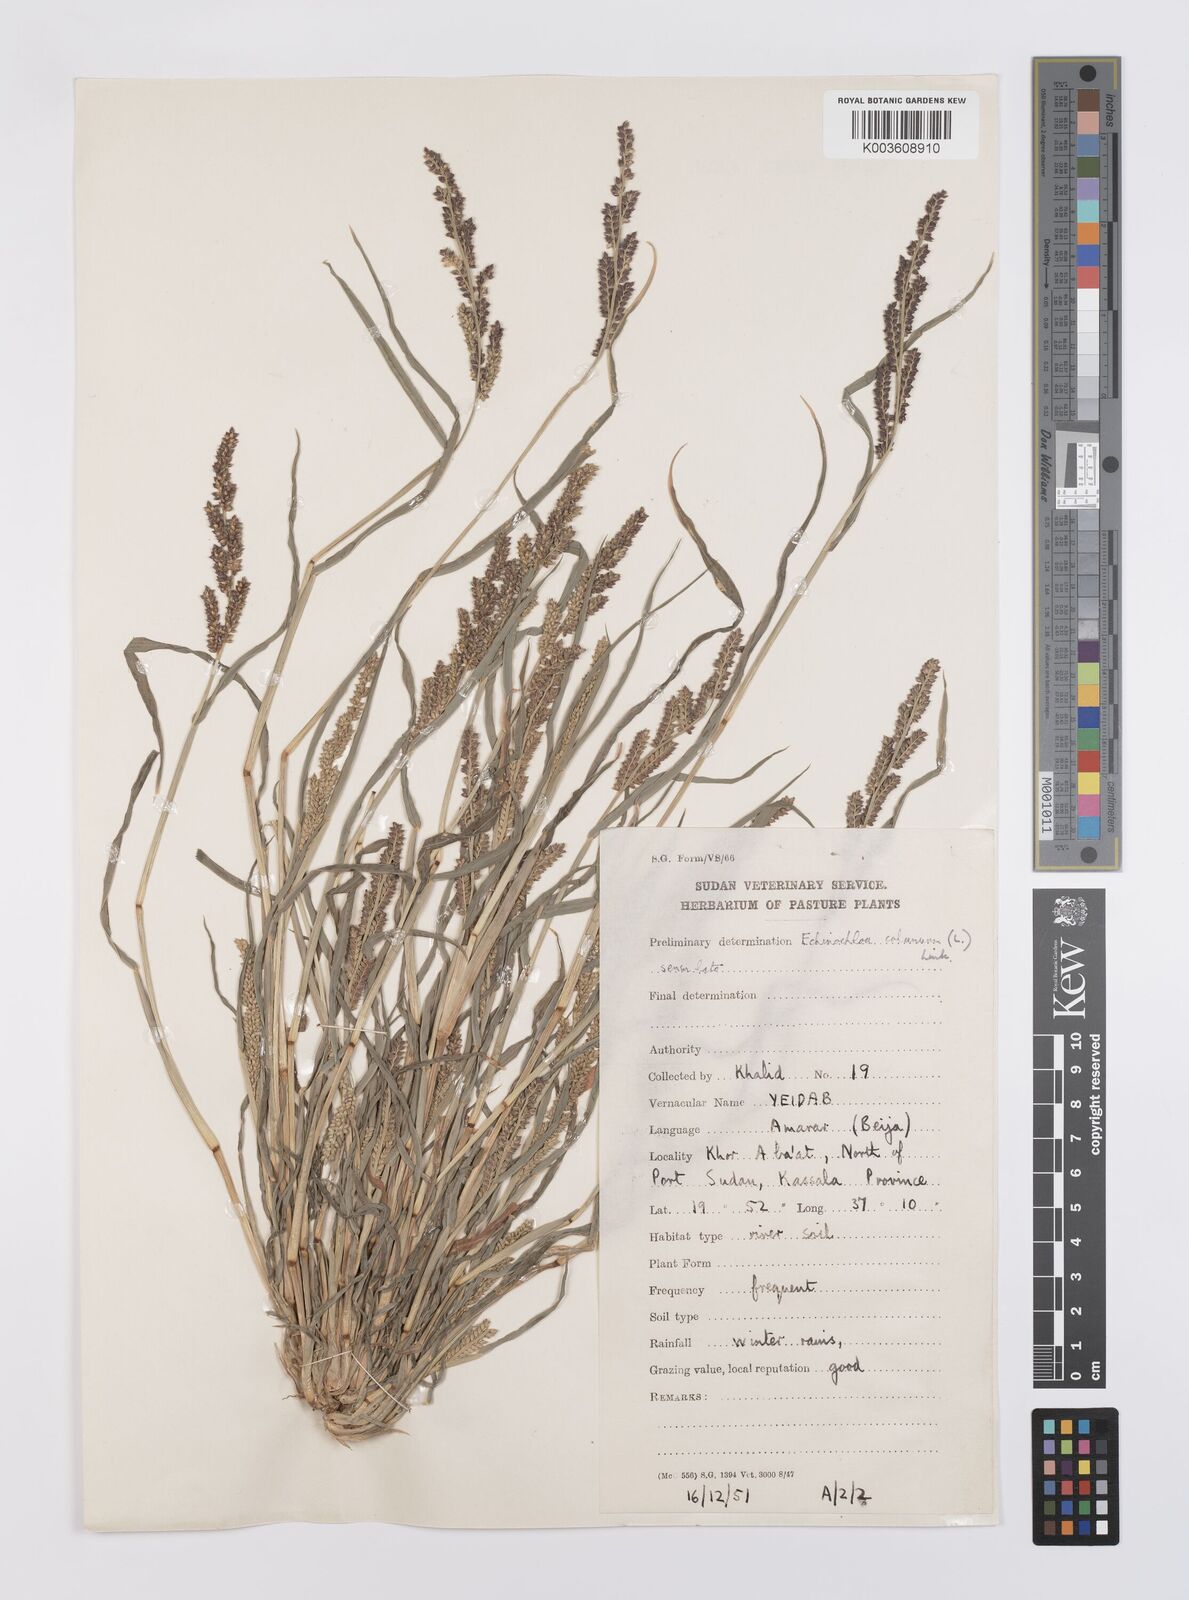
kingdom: Plantae
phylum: Tracheophyta
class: Liliopsida
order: Poales
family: Poaceae
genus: Echinochloa
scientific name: Echinochloa colonum
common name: Jungle rice
